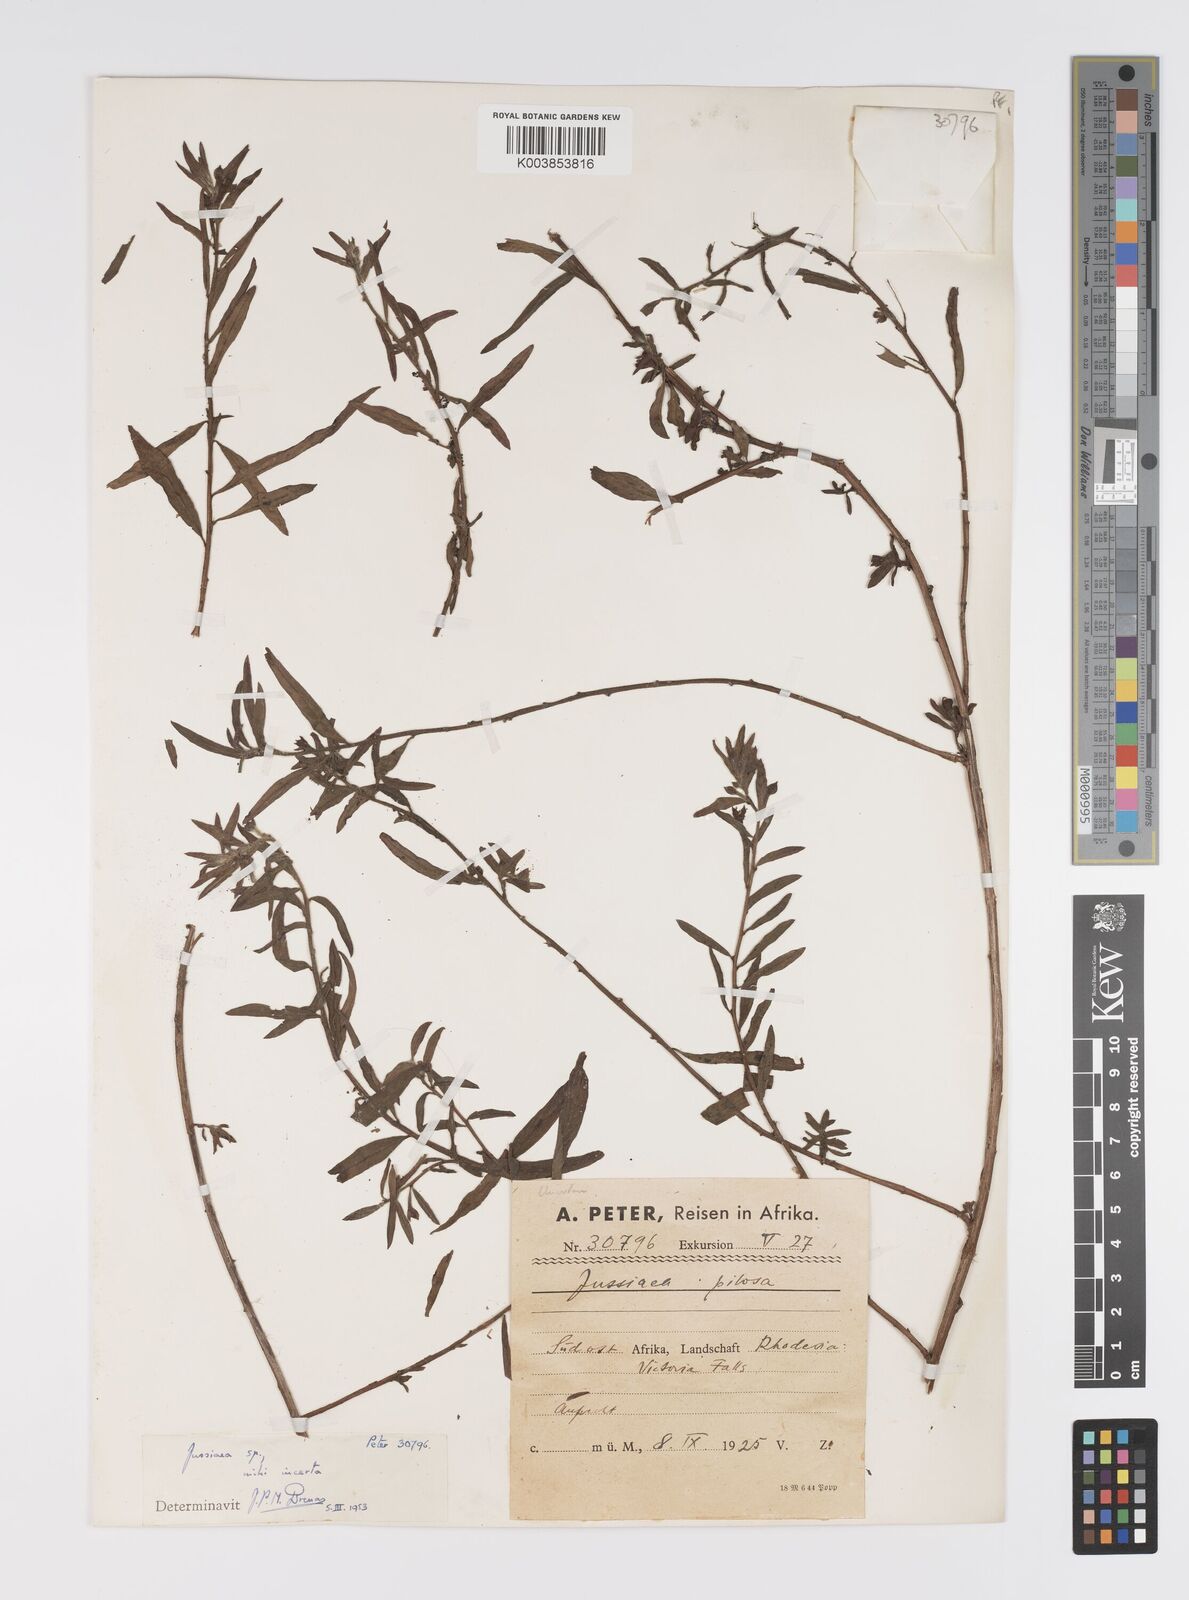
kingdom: Plantae
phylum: Tracheophyta
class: Magnoliopsida
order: Myrtales
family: Onagraceae
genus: Ludwigia
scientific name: Ludwigia
